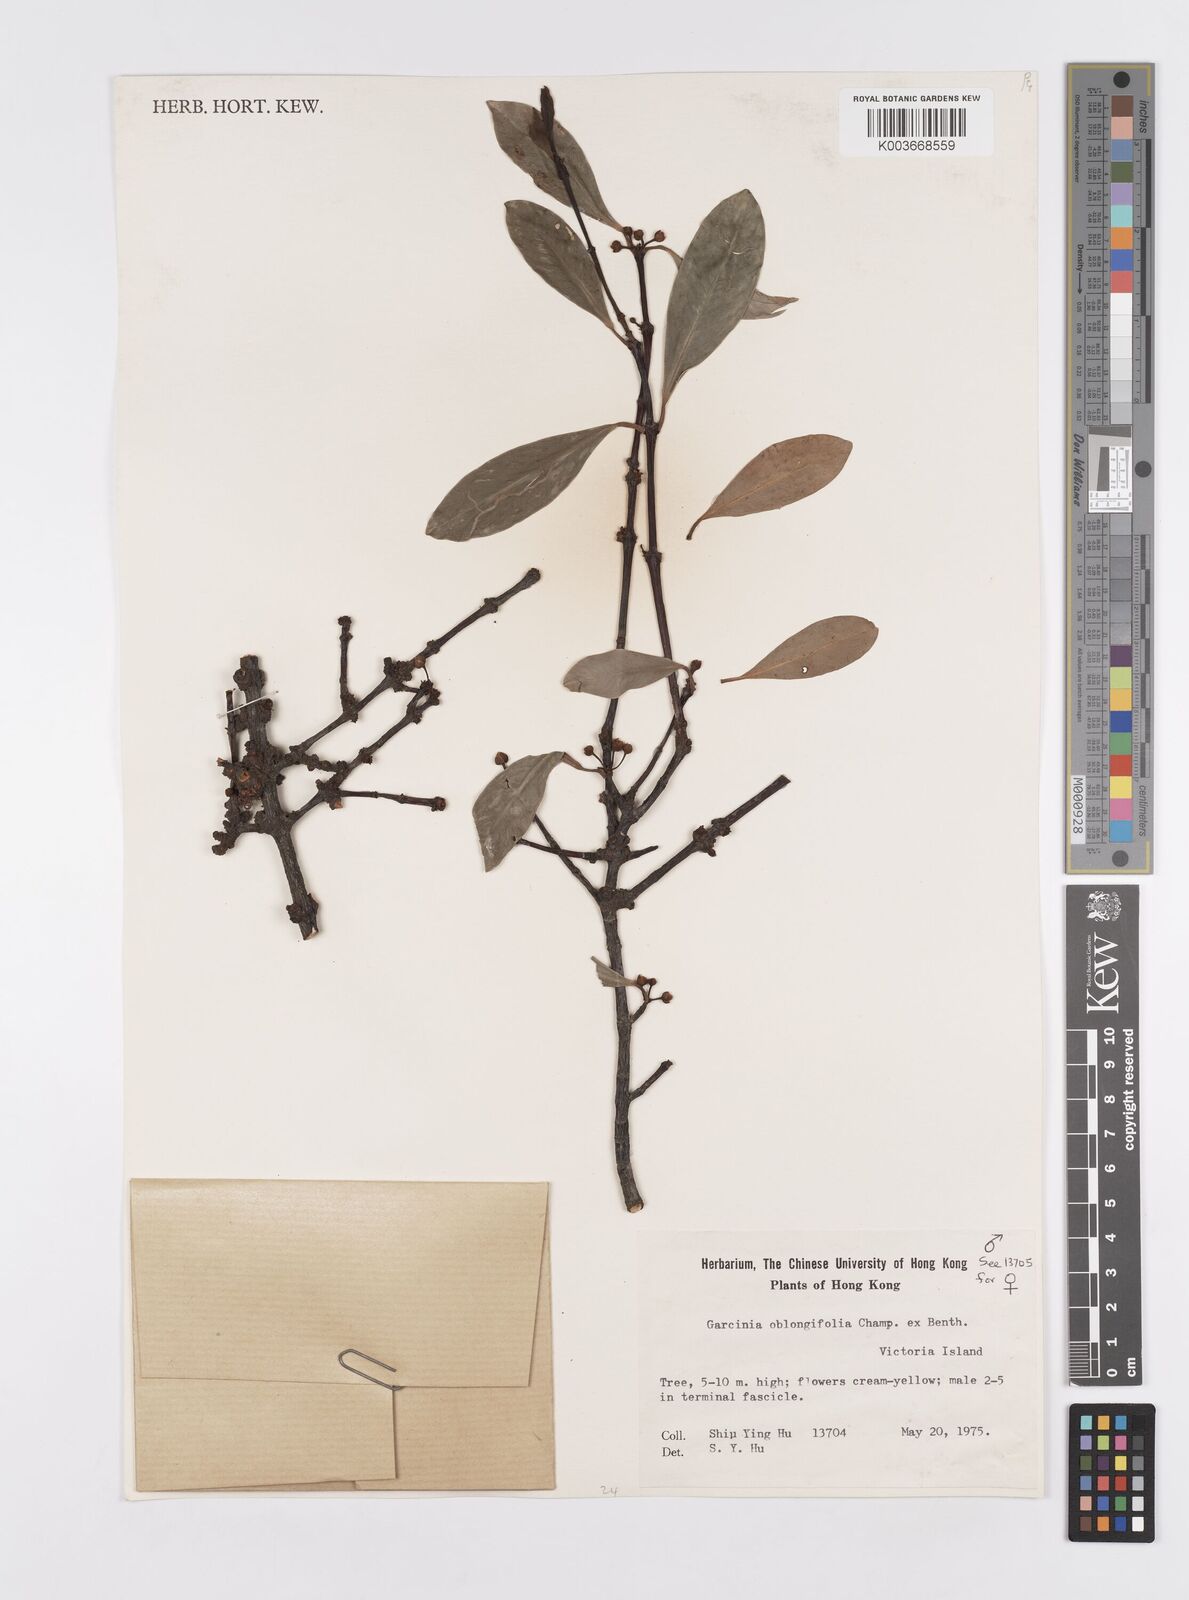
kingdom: Plantae
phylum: Tracheophyta
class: Magnoliopsida
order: Malpighiales
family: Clusiaceae
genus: Garcinia
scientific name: Garcinia oblongifolia
